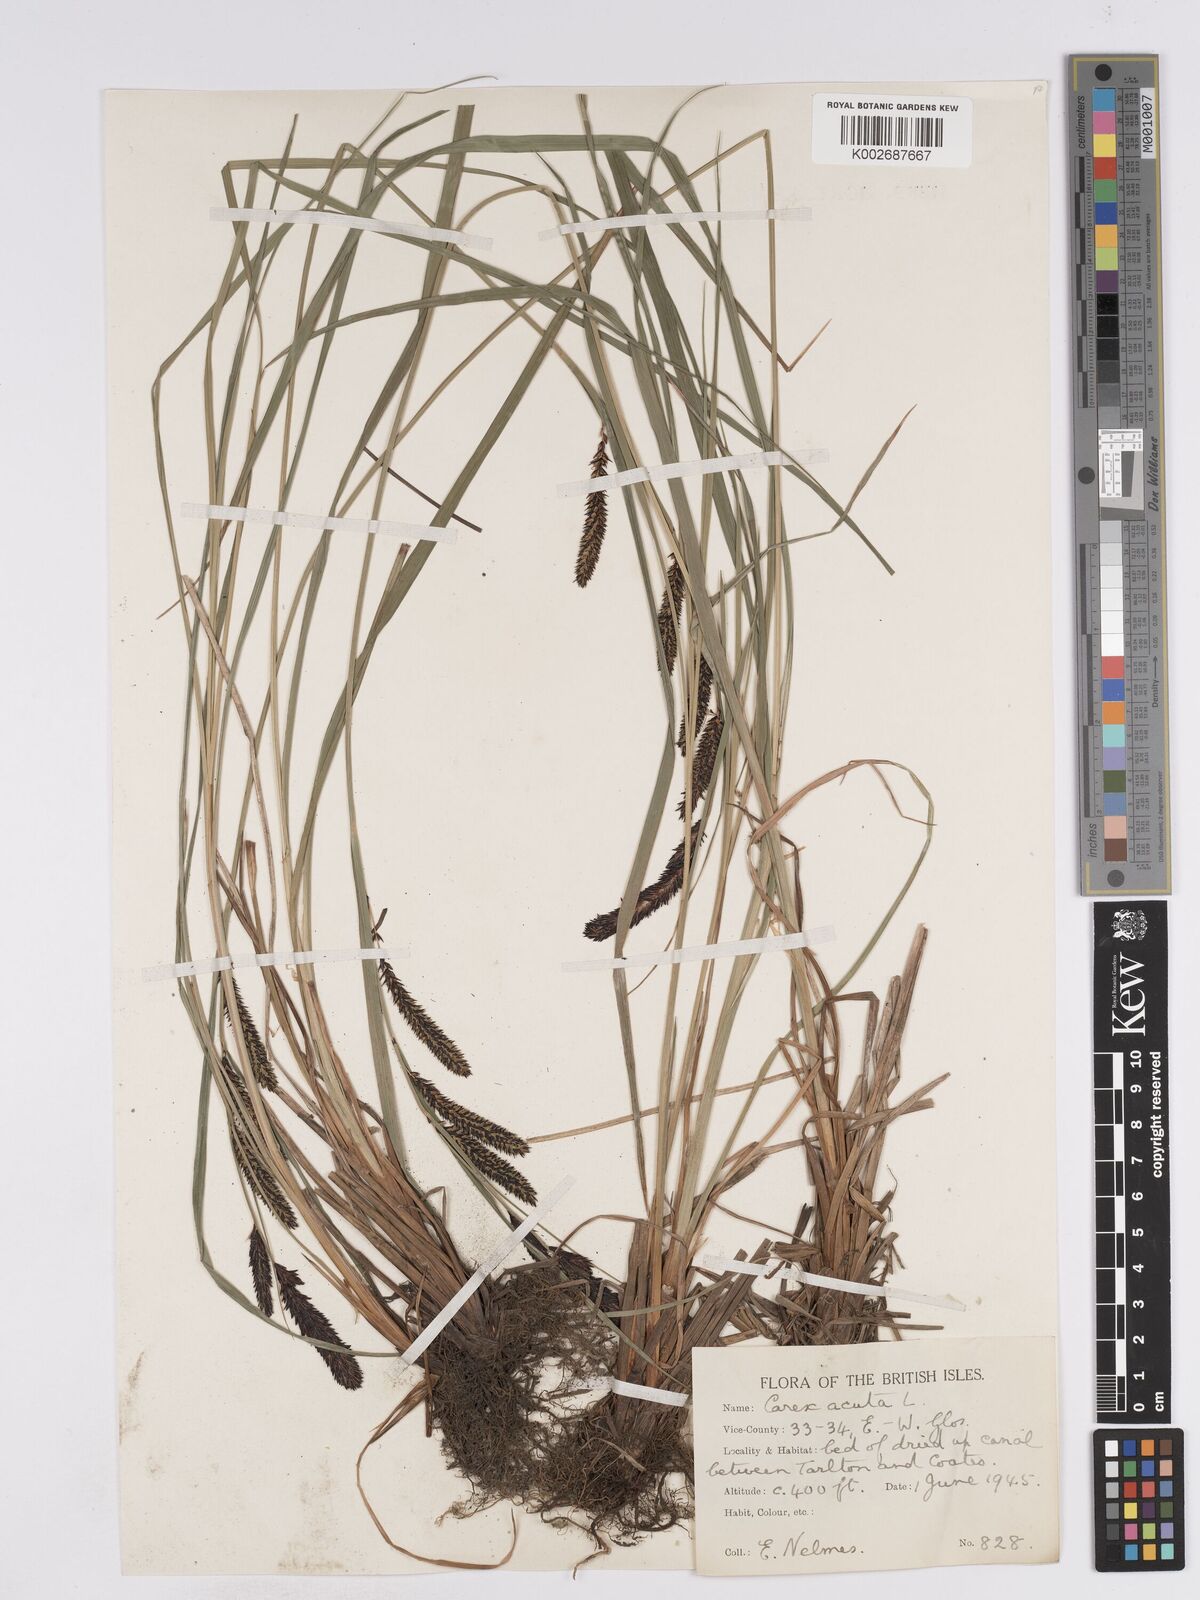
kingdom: Plantae
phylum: Tracheophyta
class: Liliopsida
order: Poales
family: Cyperaceae
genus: Carex
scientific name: Carex acuta
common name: Slender tufted-sedge
